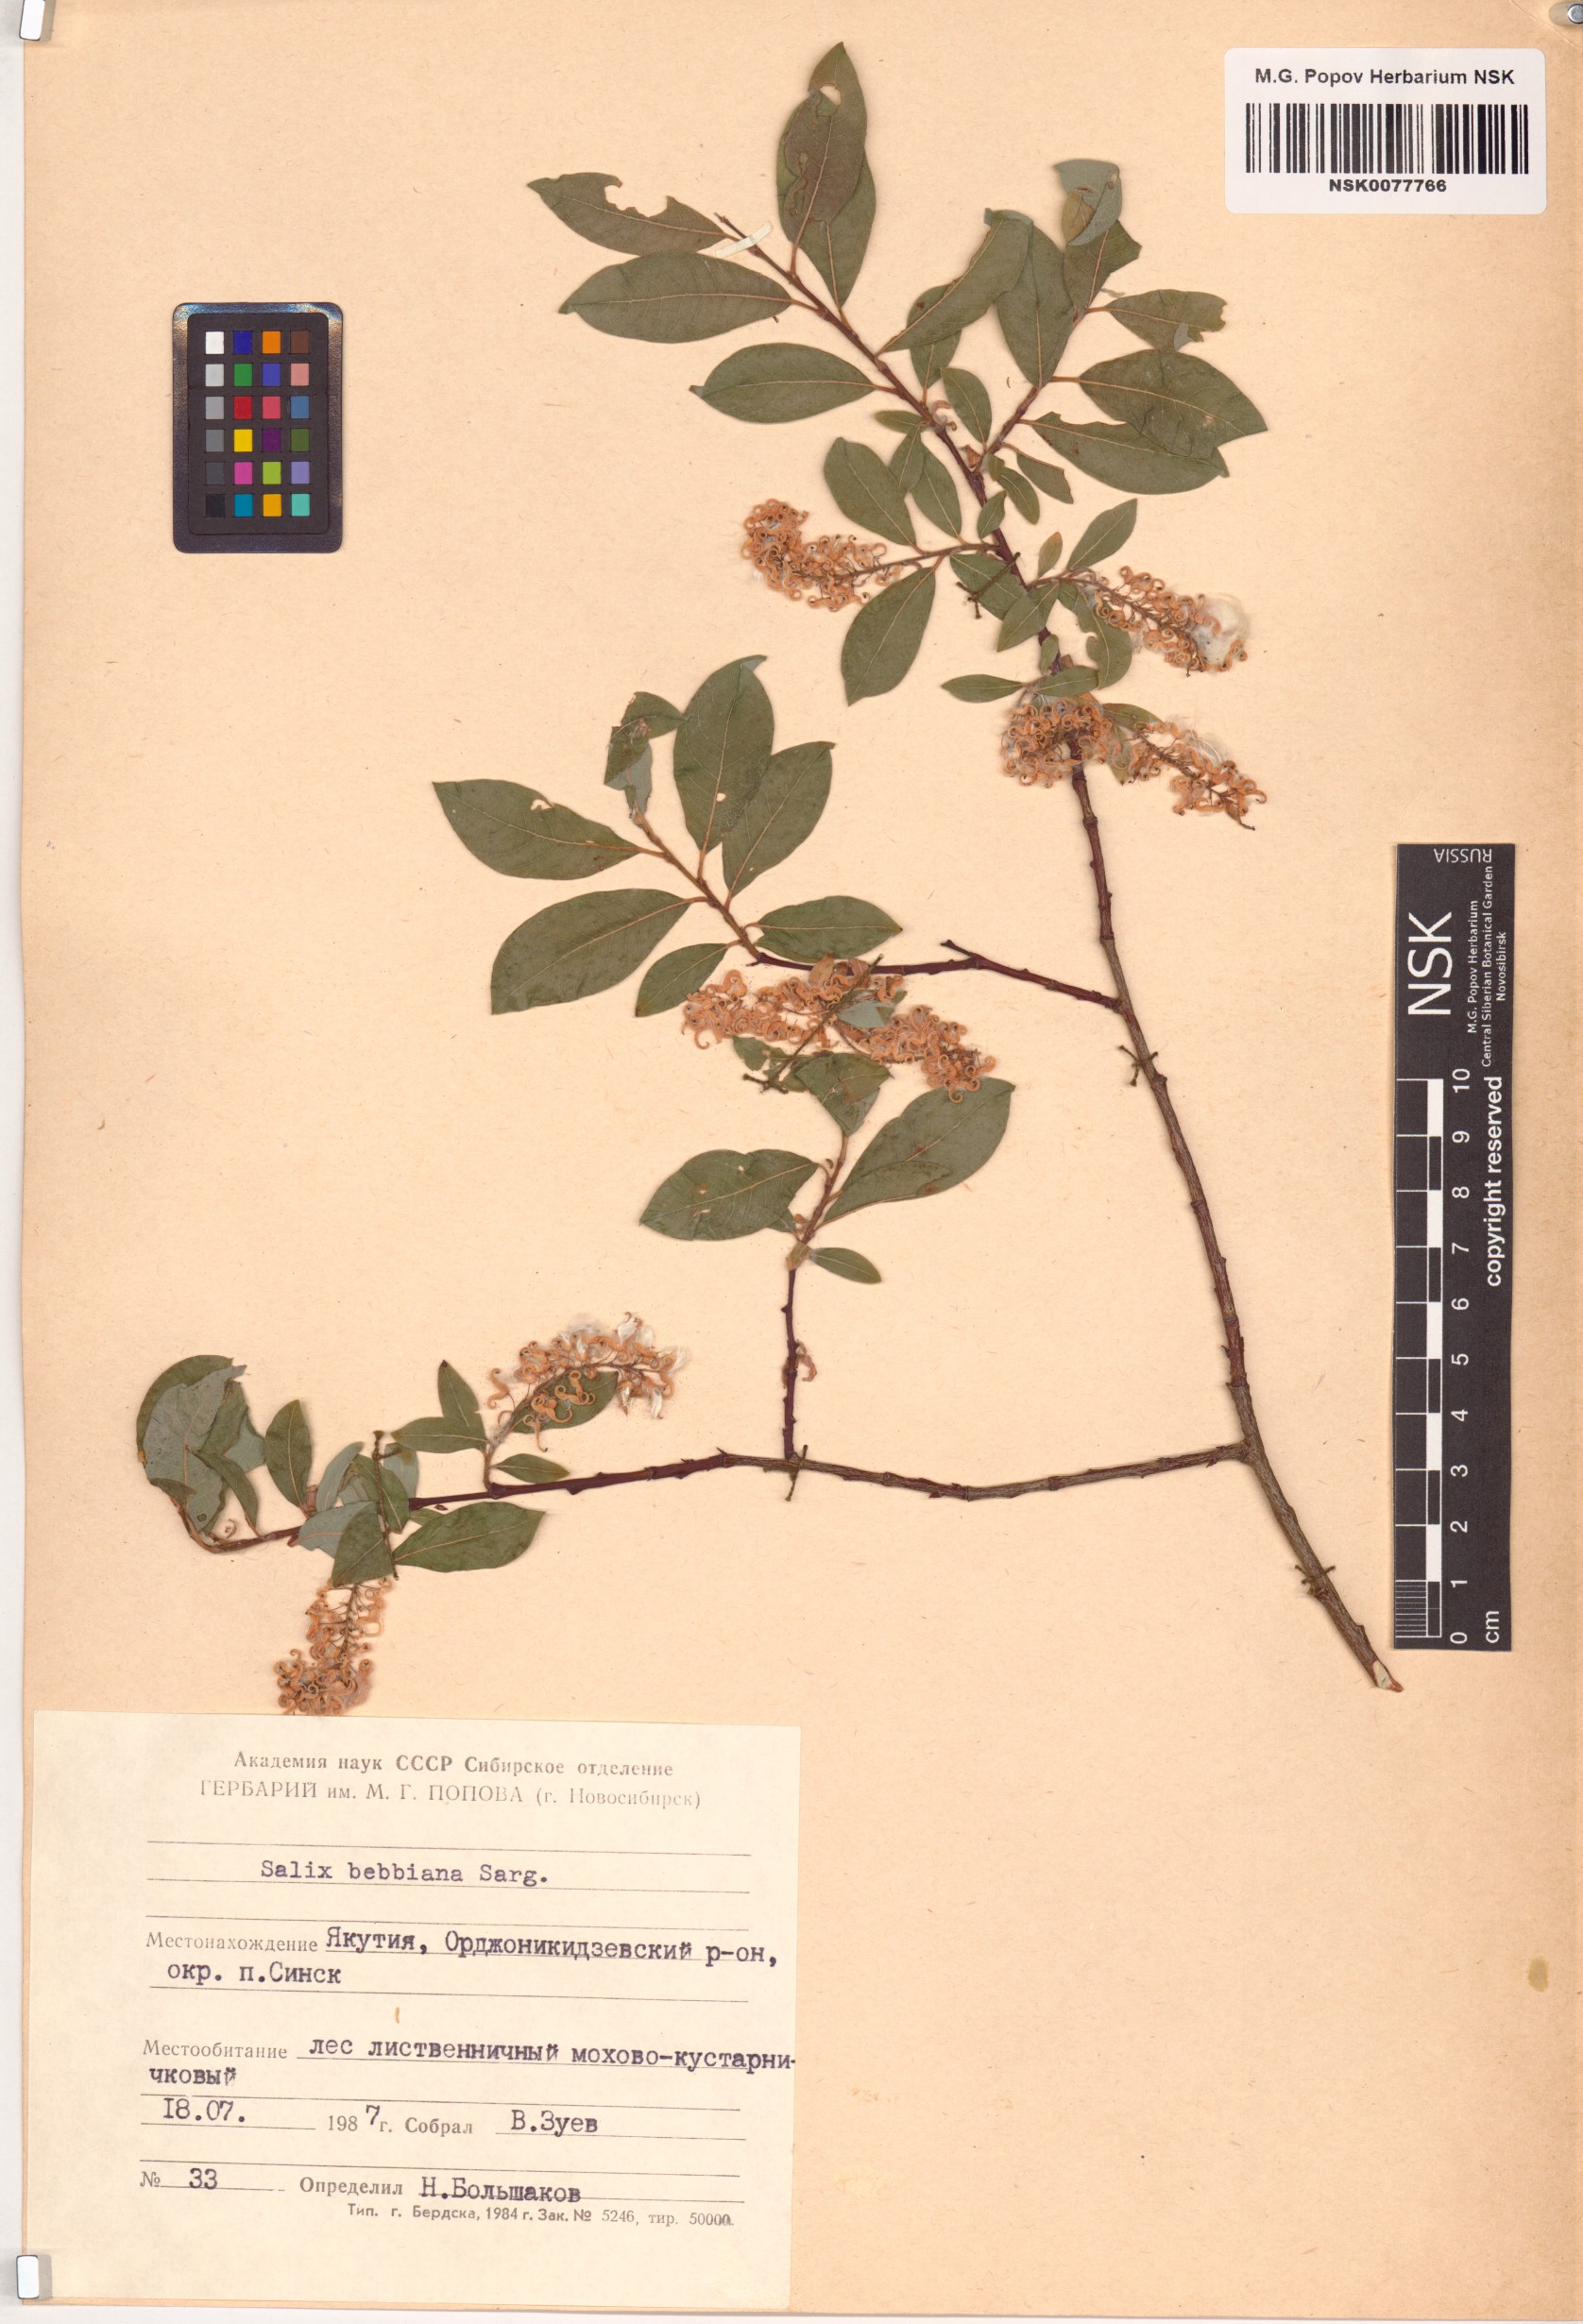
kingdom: Plantae
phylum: Tracheophyta
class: Magnoliopsida
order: Malpighiales
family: Salicaceae
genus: Salix
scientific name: Salix bebbiana
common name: Bebb's willow
